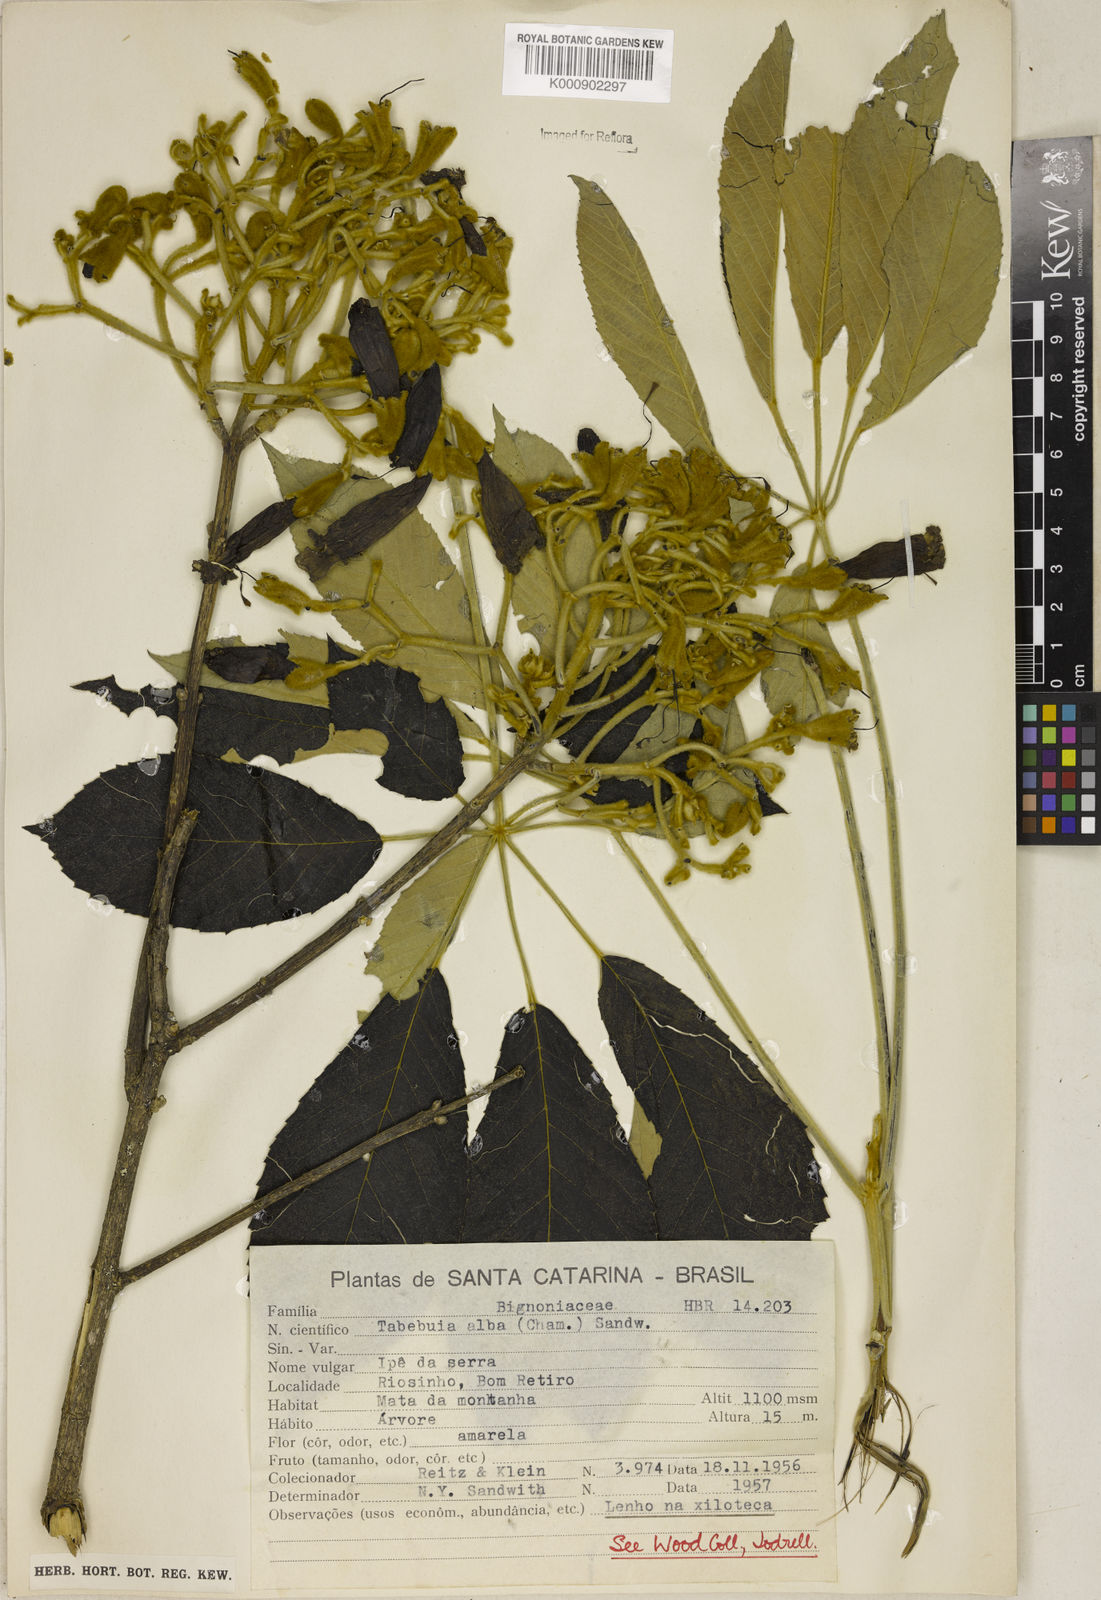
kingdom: Plantae
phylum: Tracheophyta
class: Magnoliopsida
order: Lamiales
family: Bignoniaceae
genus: Handroanthus
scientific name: Handroanthus albus
